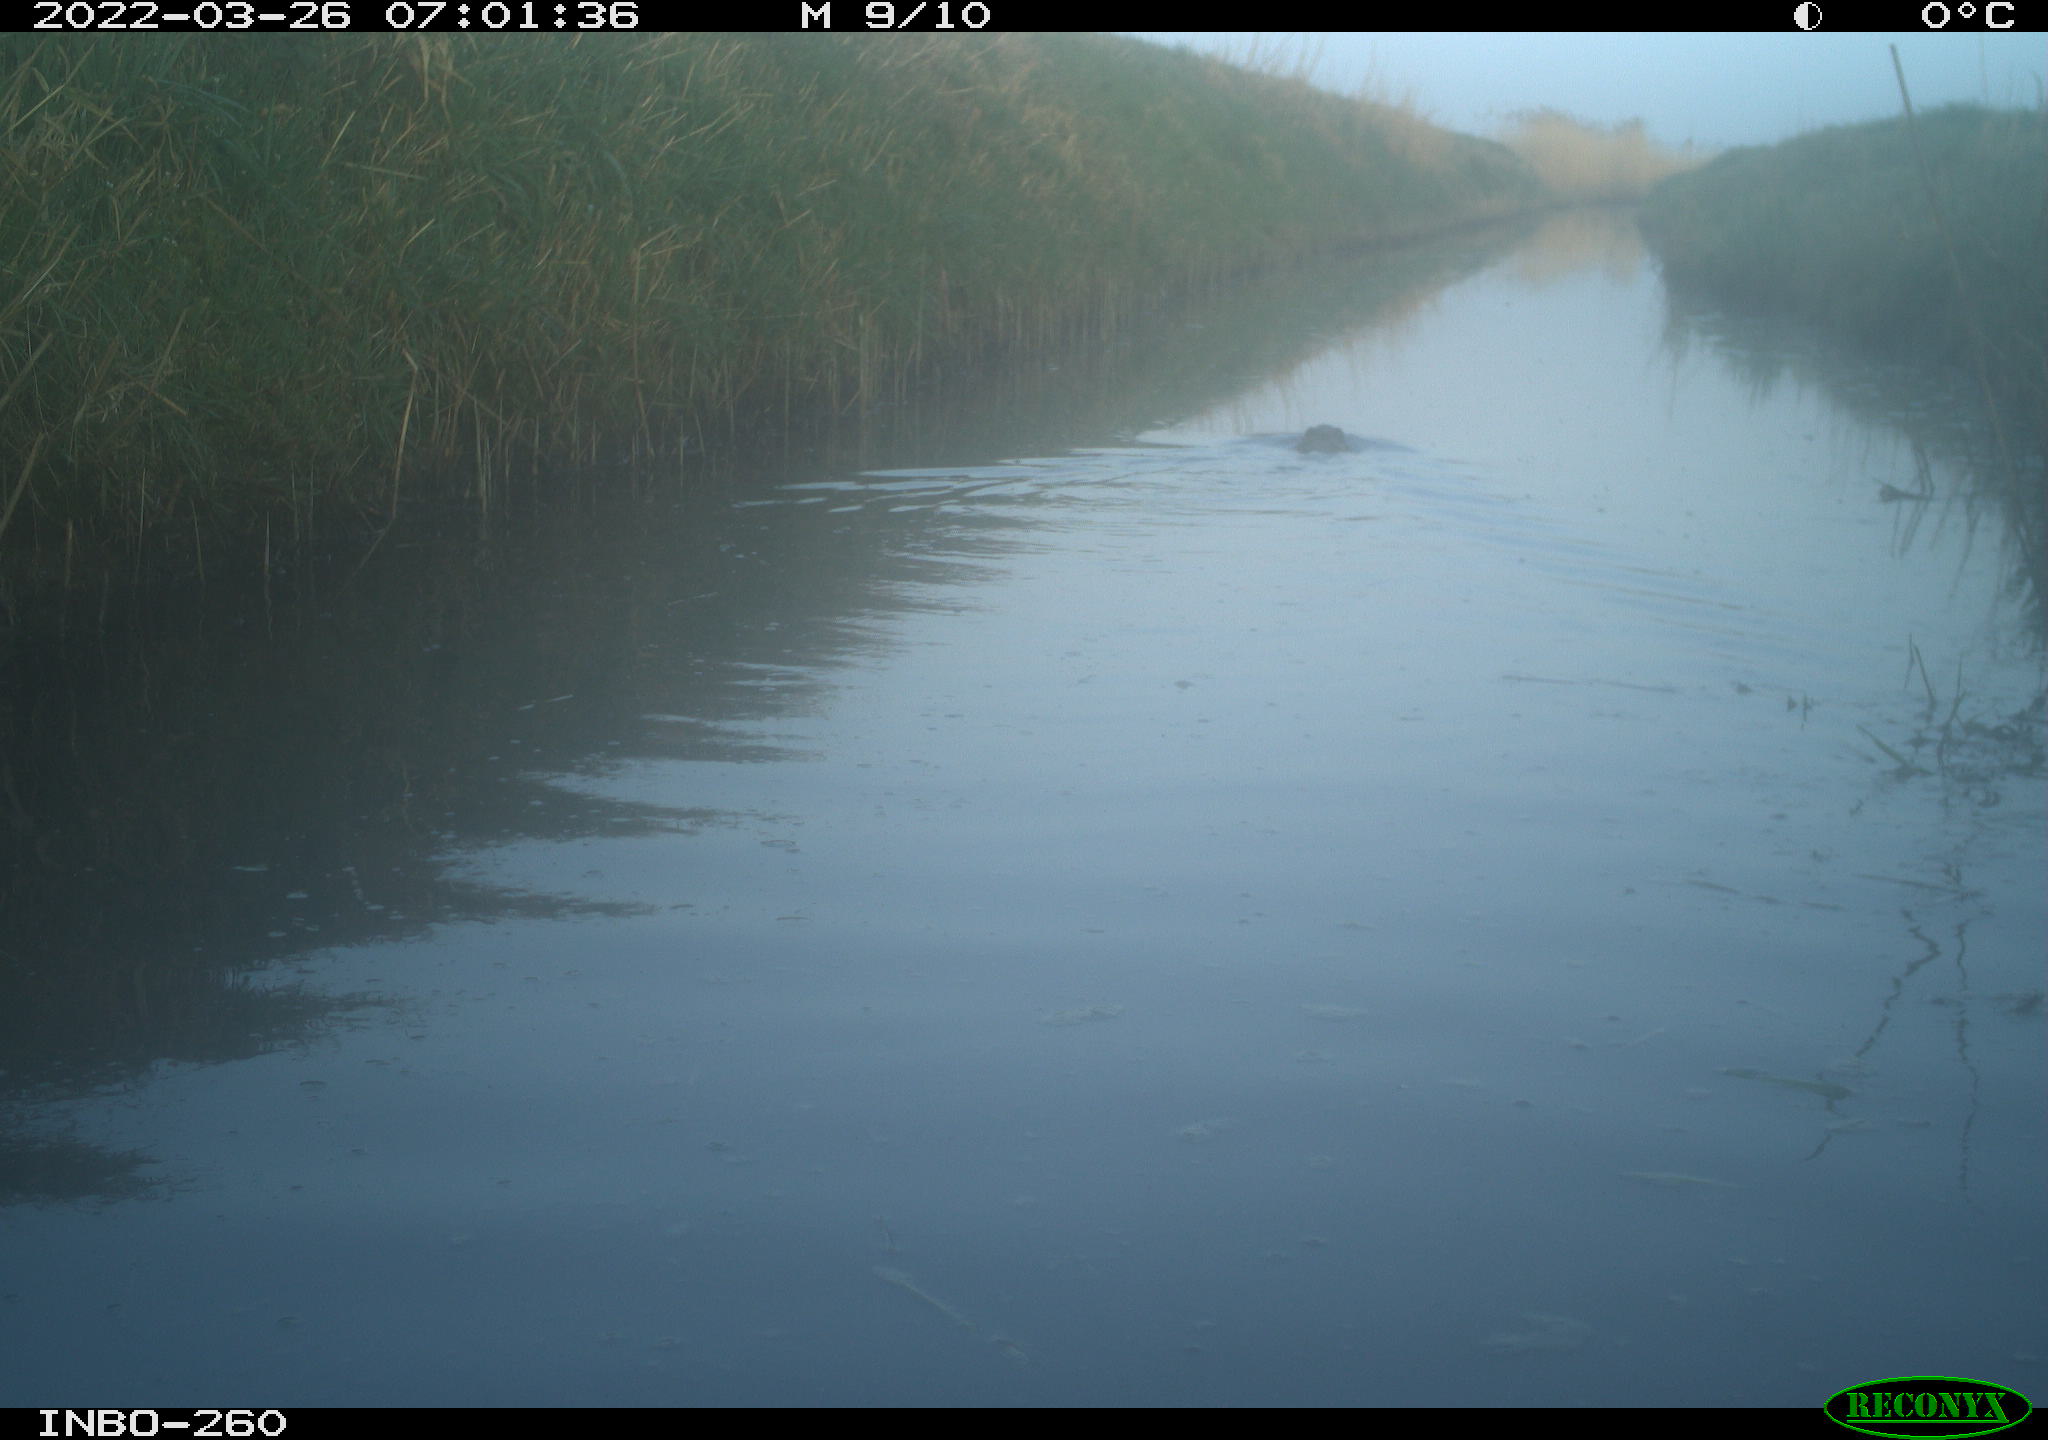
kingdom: Animalia
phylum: Chordata
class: Mammalia
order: Rodentia
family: Cricetidae
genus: Ondatra
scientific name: Ondatra zibethicus
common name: Muskrat
